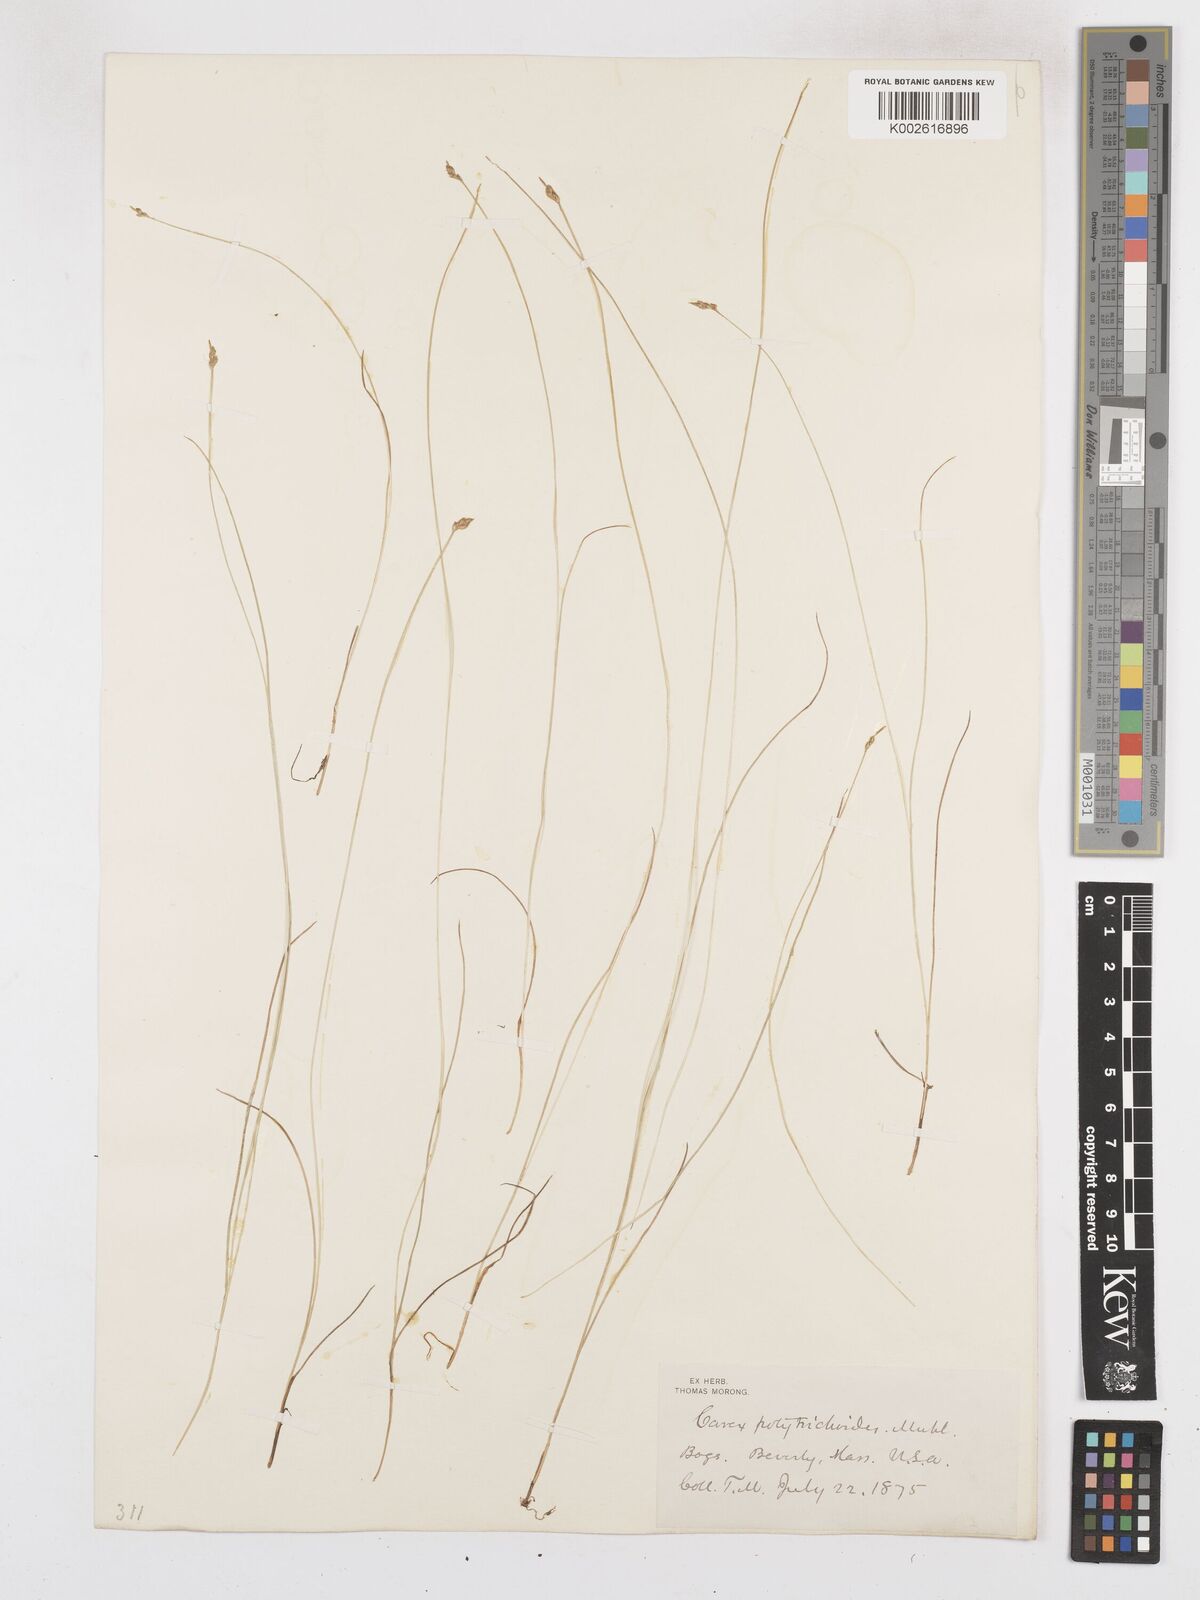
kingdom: Plantae
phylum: Tracheophyta
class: Liliopsida
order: Poales
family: Cyperaceae
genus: Carex
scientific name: Carex leptalea
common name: Bristly-stalked sedge
